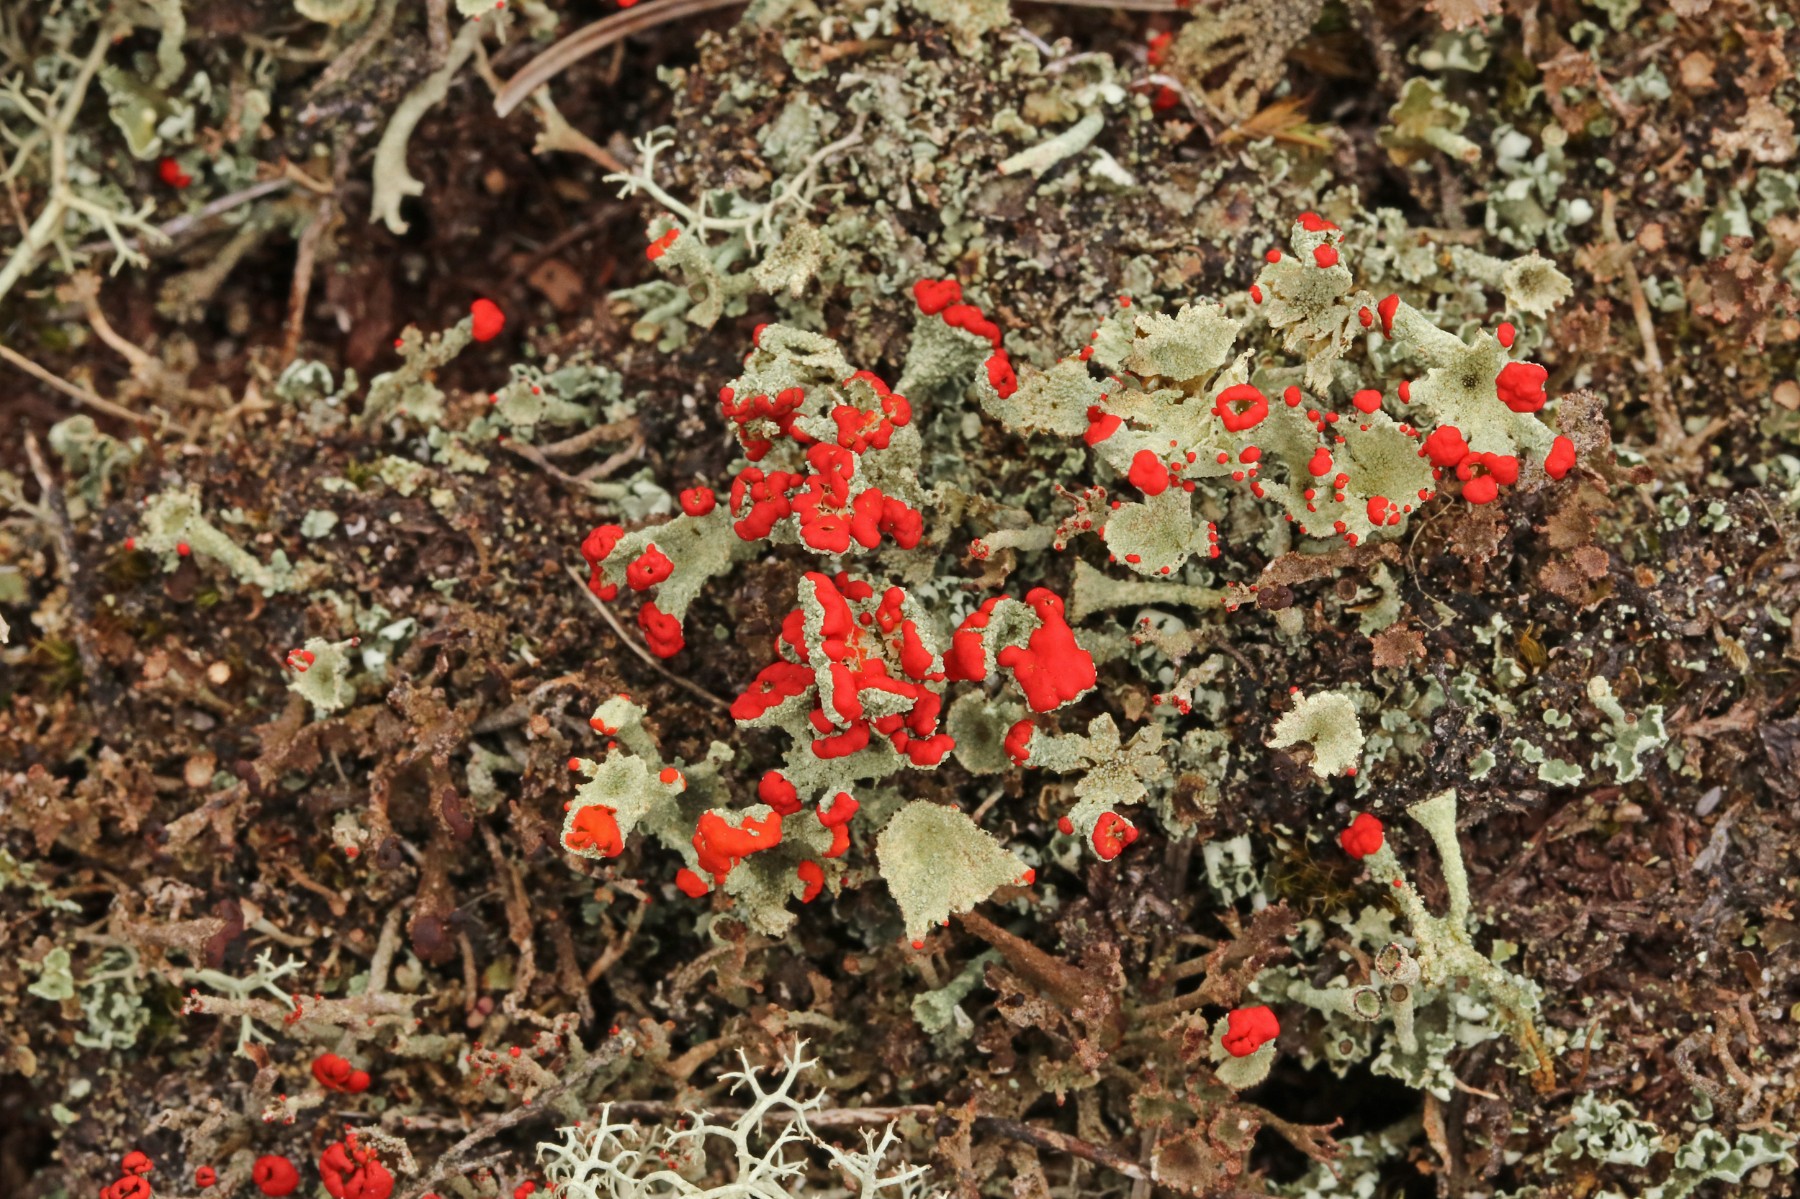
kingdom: Fungi
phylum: Ascomycota
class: Lecanoromycetes
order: Lecanorales
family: Cladoniaceae
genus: Cladonia
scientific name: Cladonia diversa
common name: rød bægerlav
